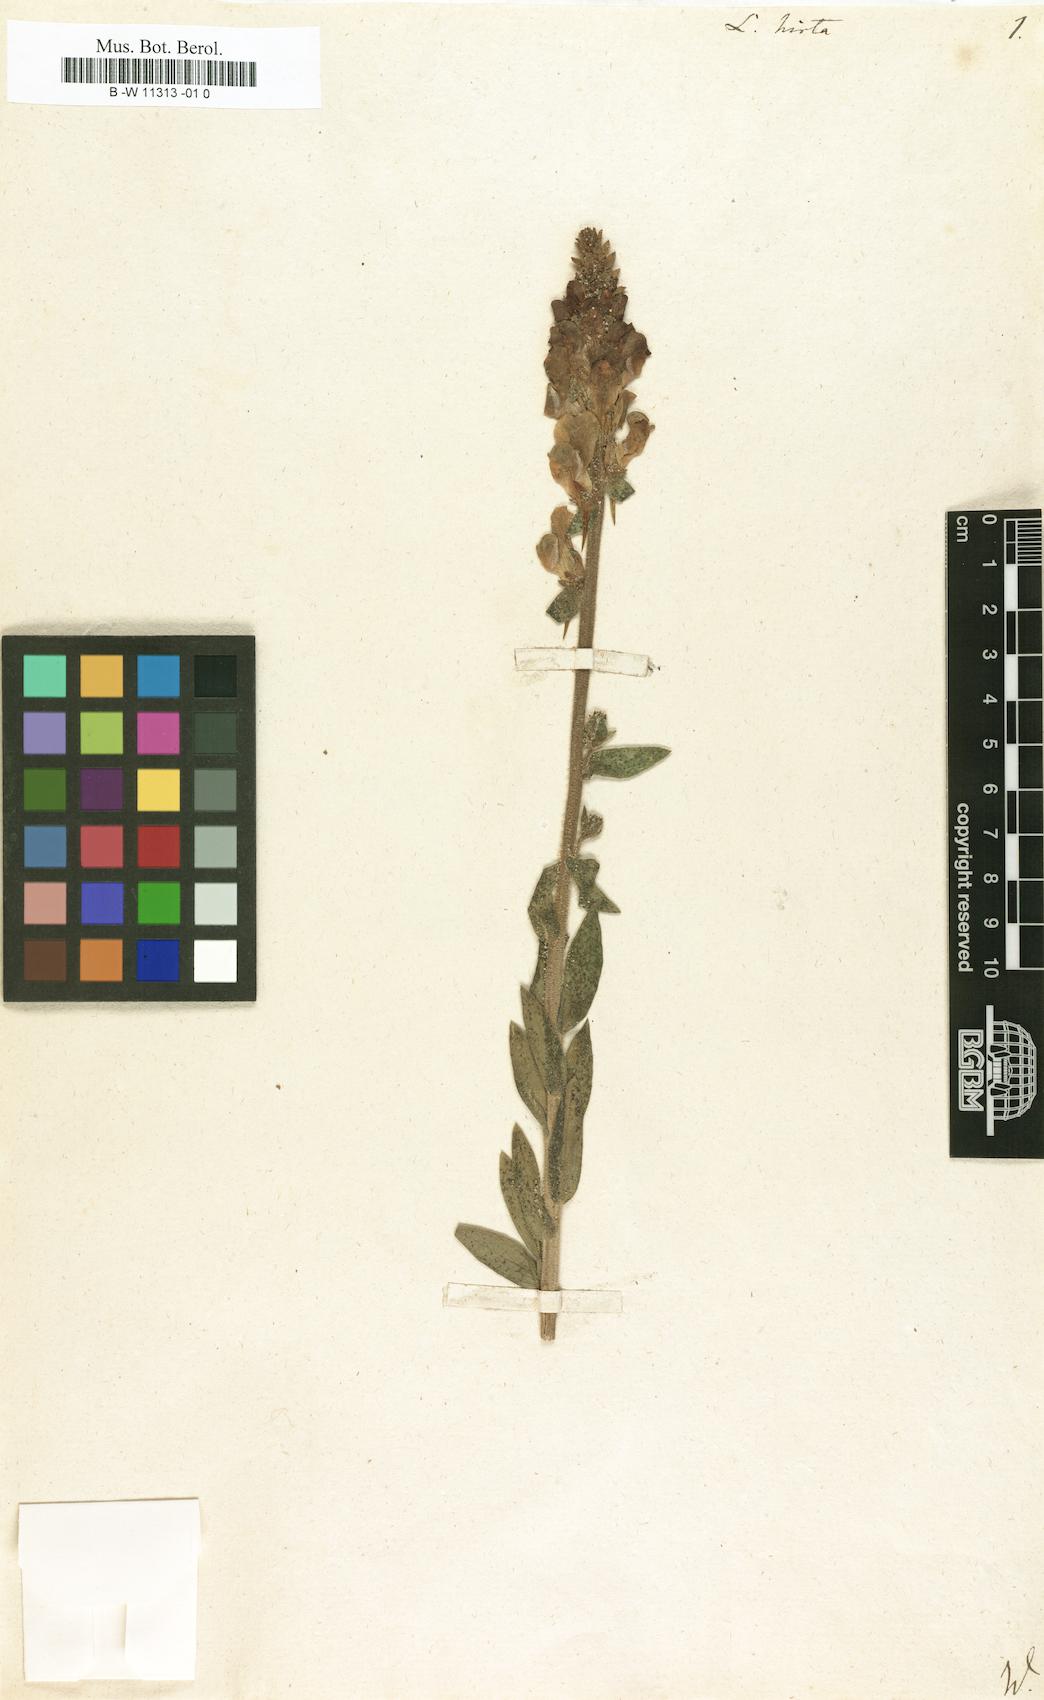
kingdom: Plantae
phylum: Tracheophyta
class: Magnoliopsida
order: Lamiales
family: Plantaginaceae
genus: Linaria
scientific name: Linaria hirta
